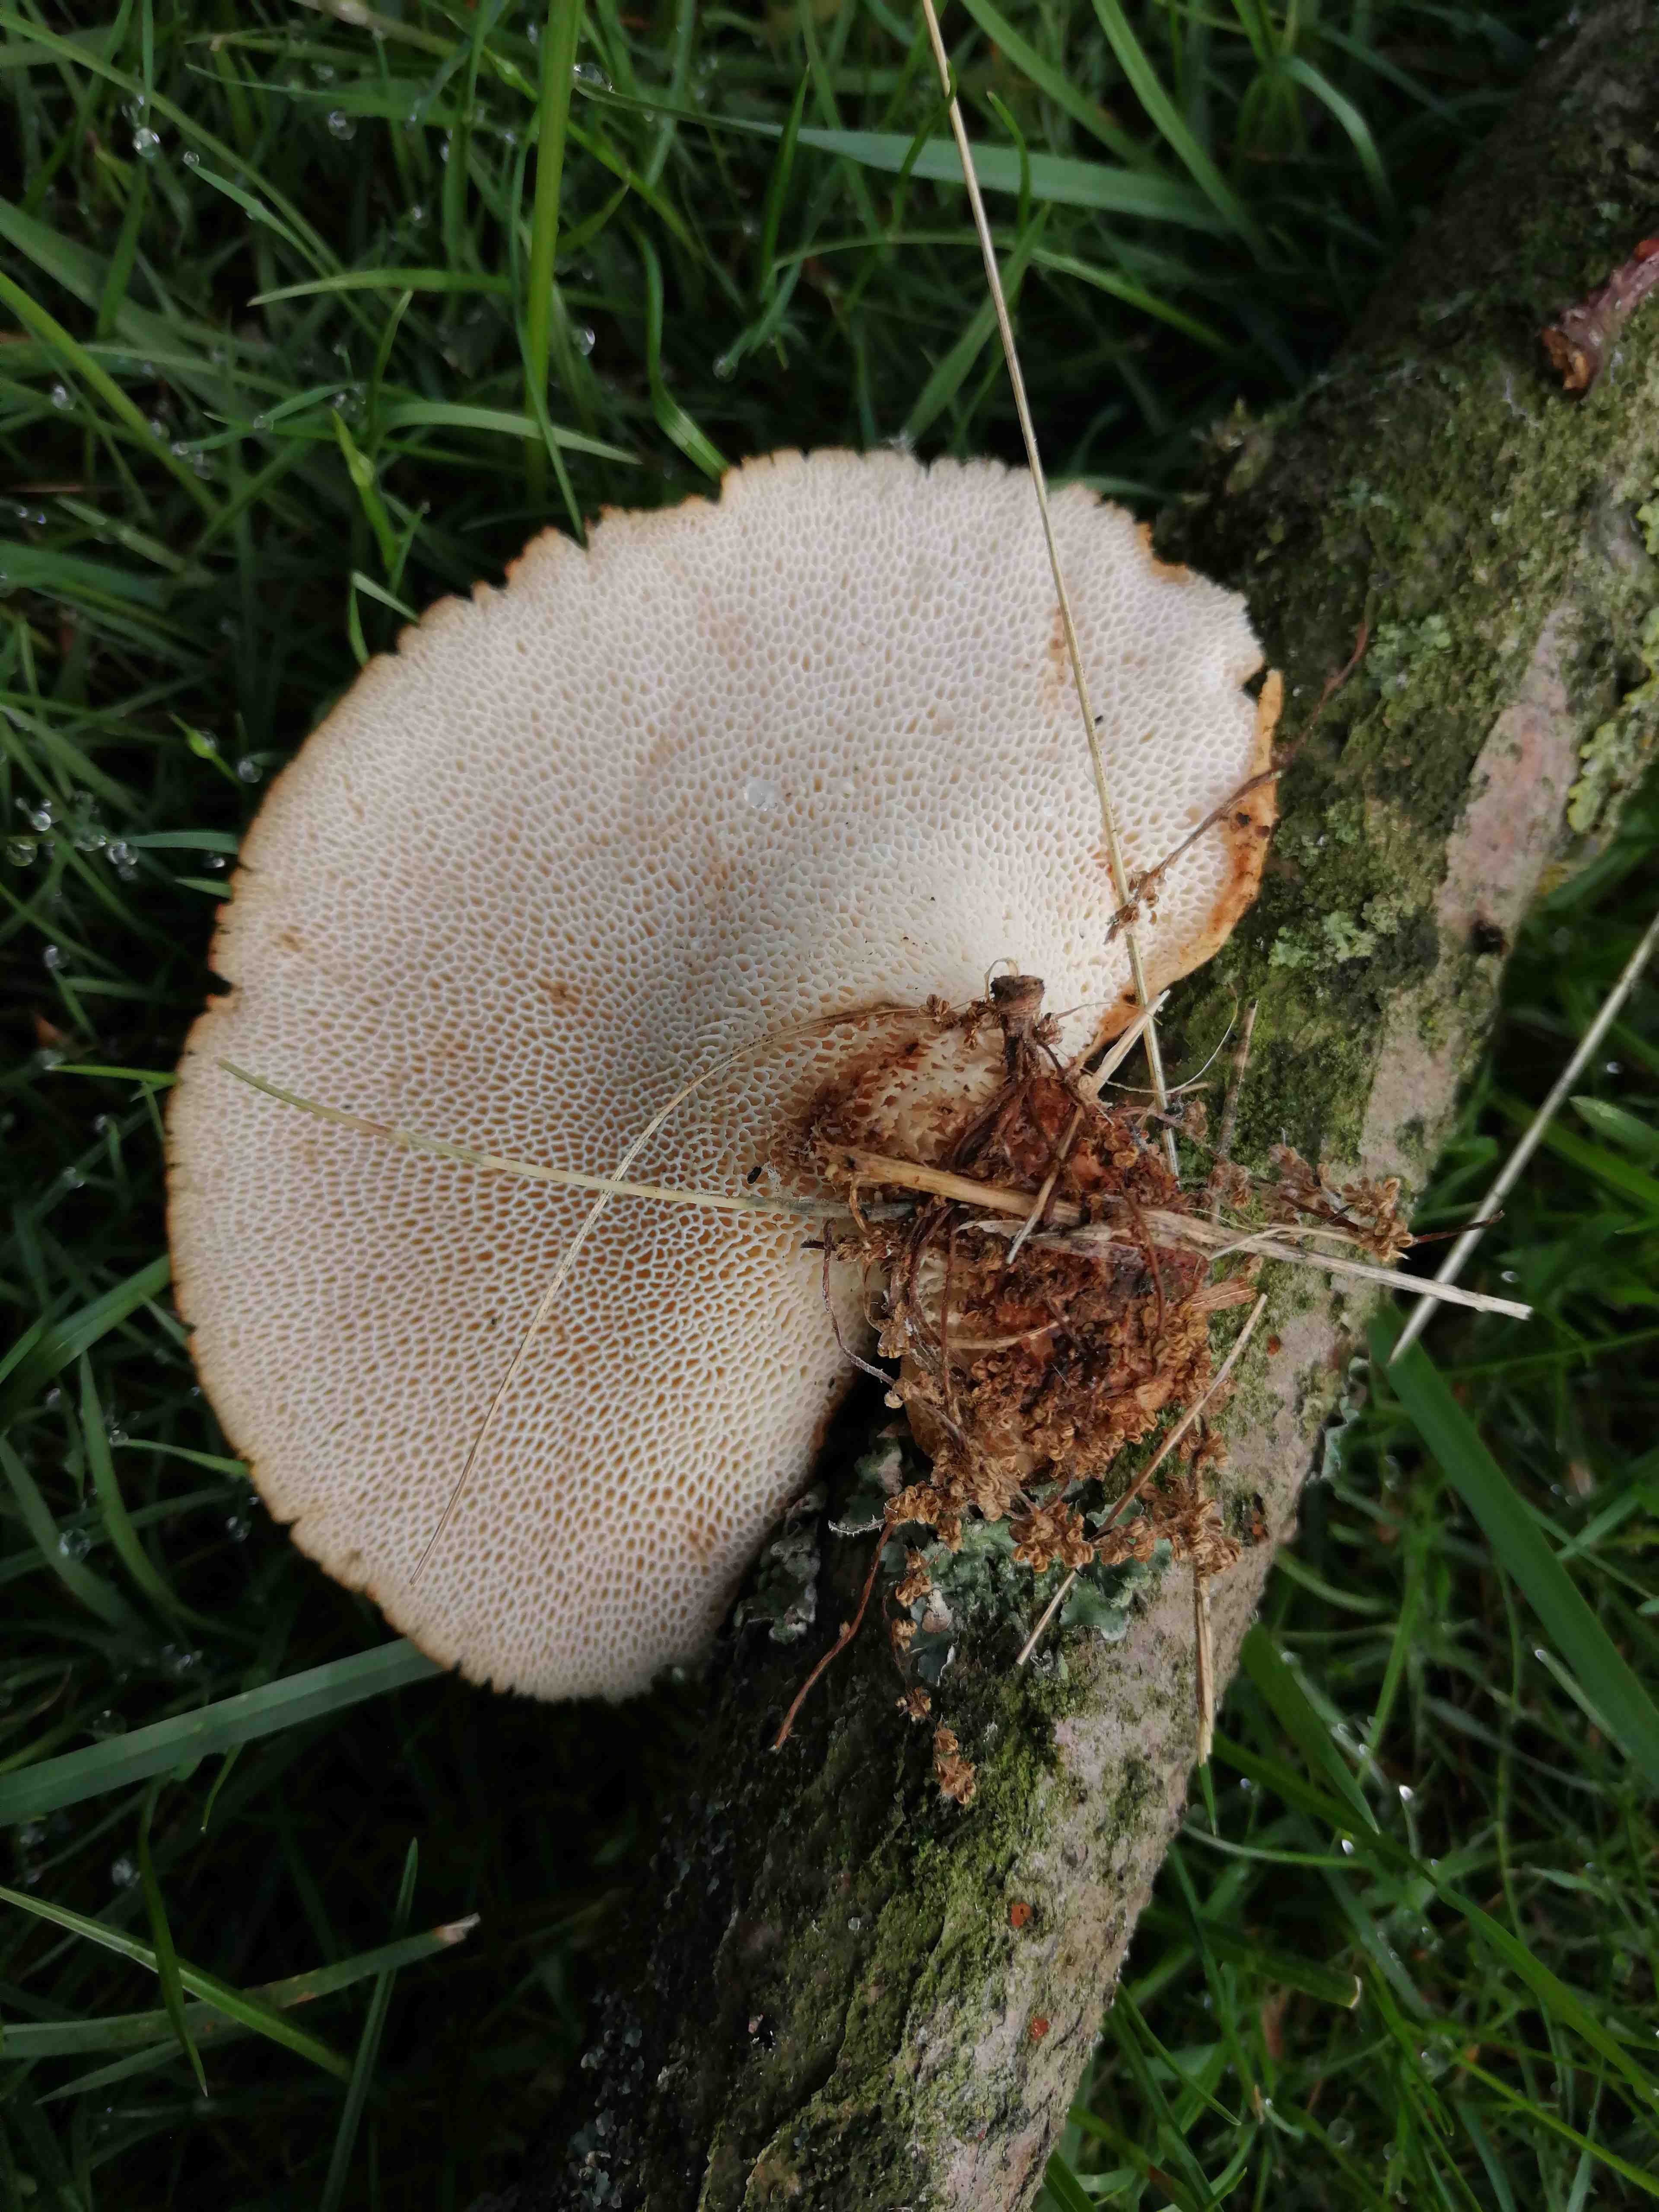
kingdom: Fungi
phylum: Basidiomycota
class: Agaricomycetes
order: Polyporales
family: Polyporaceae
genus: Polyporus
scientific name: Polyporus tuberaster
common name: knoldet stilkporesvamp
